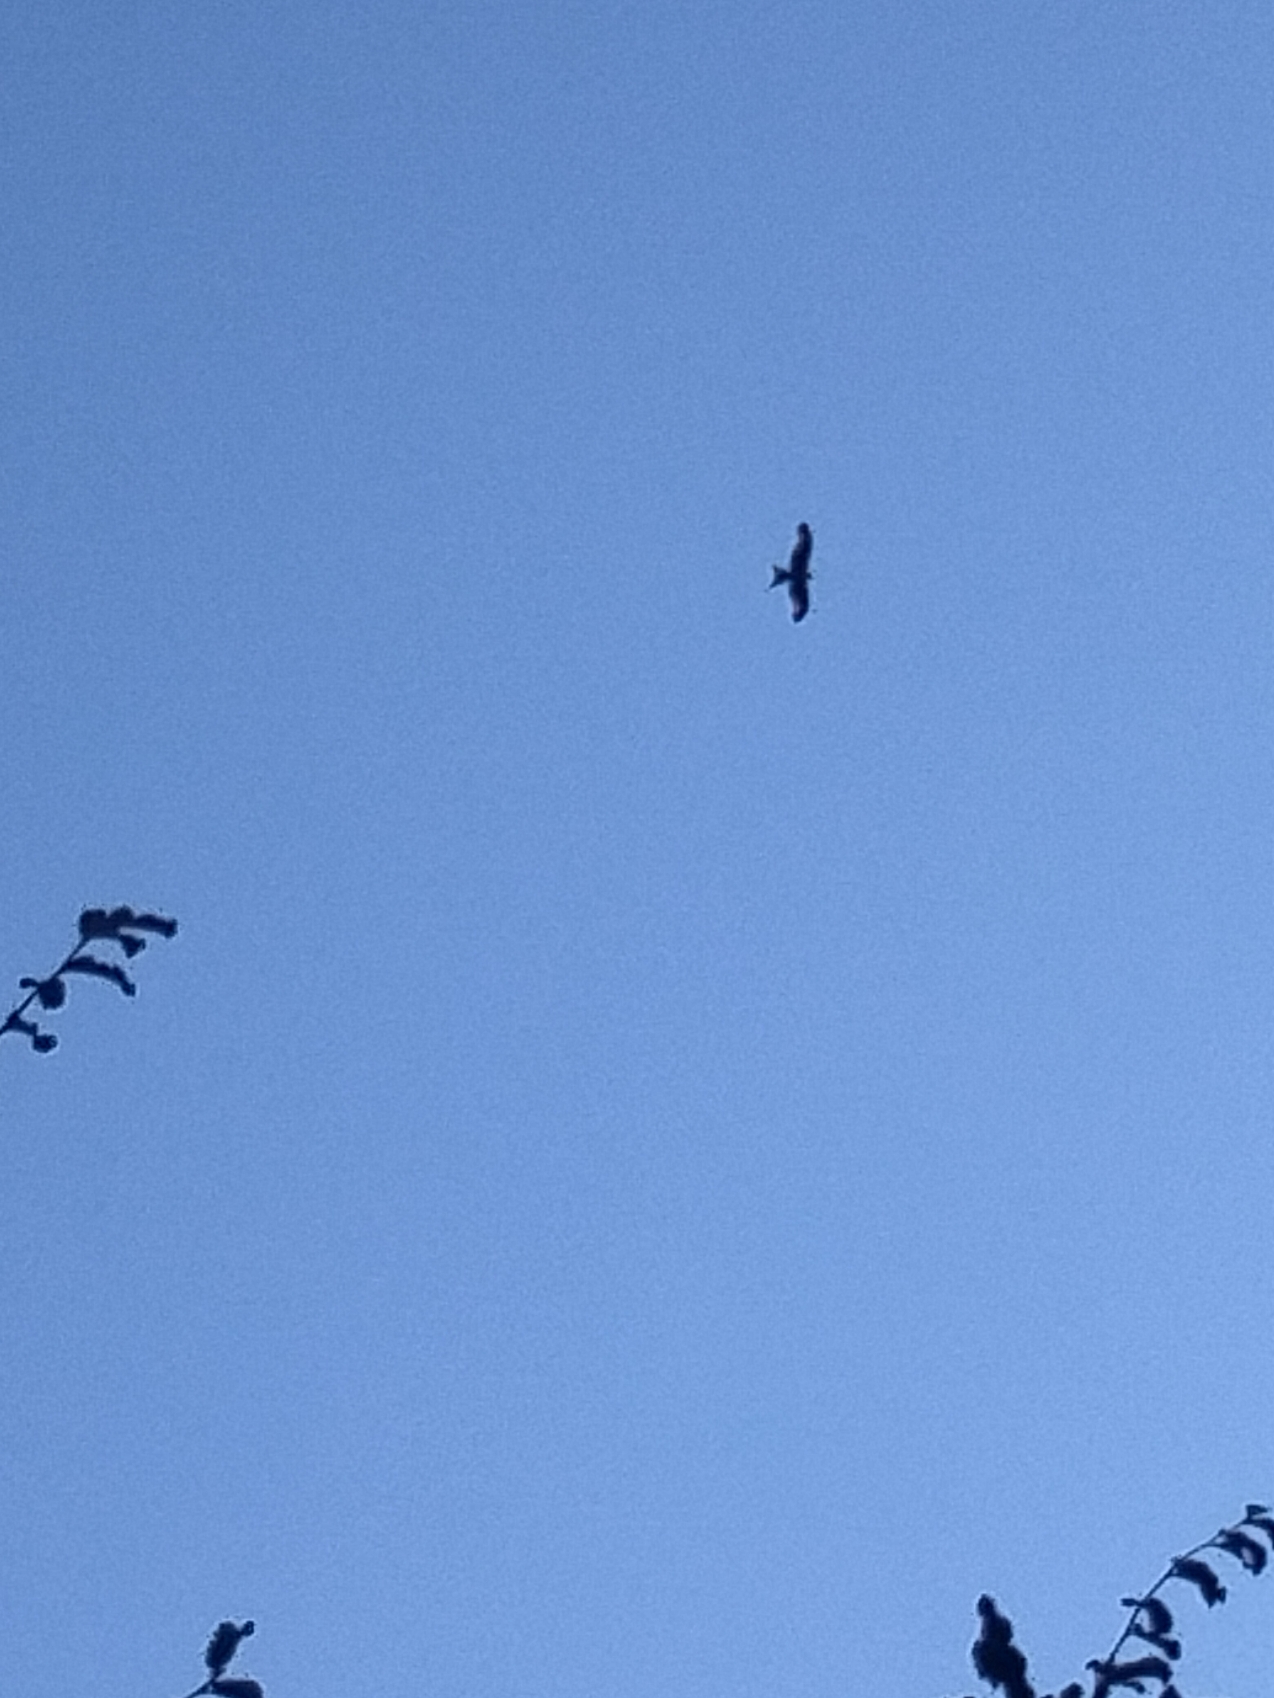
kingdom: Animalia
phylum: Chordata
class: Aves
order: Accipitriformes
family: Accipitridae
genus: Milvus
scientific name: Milvus milvus
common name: Rød glente
